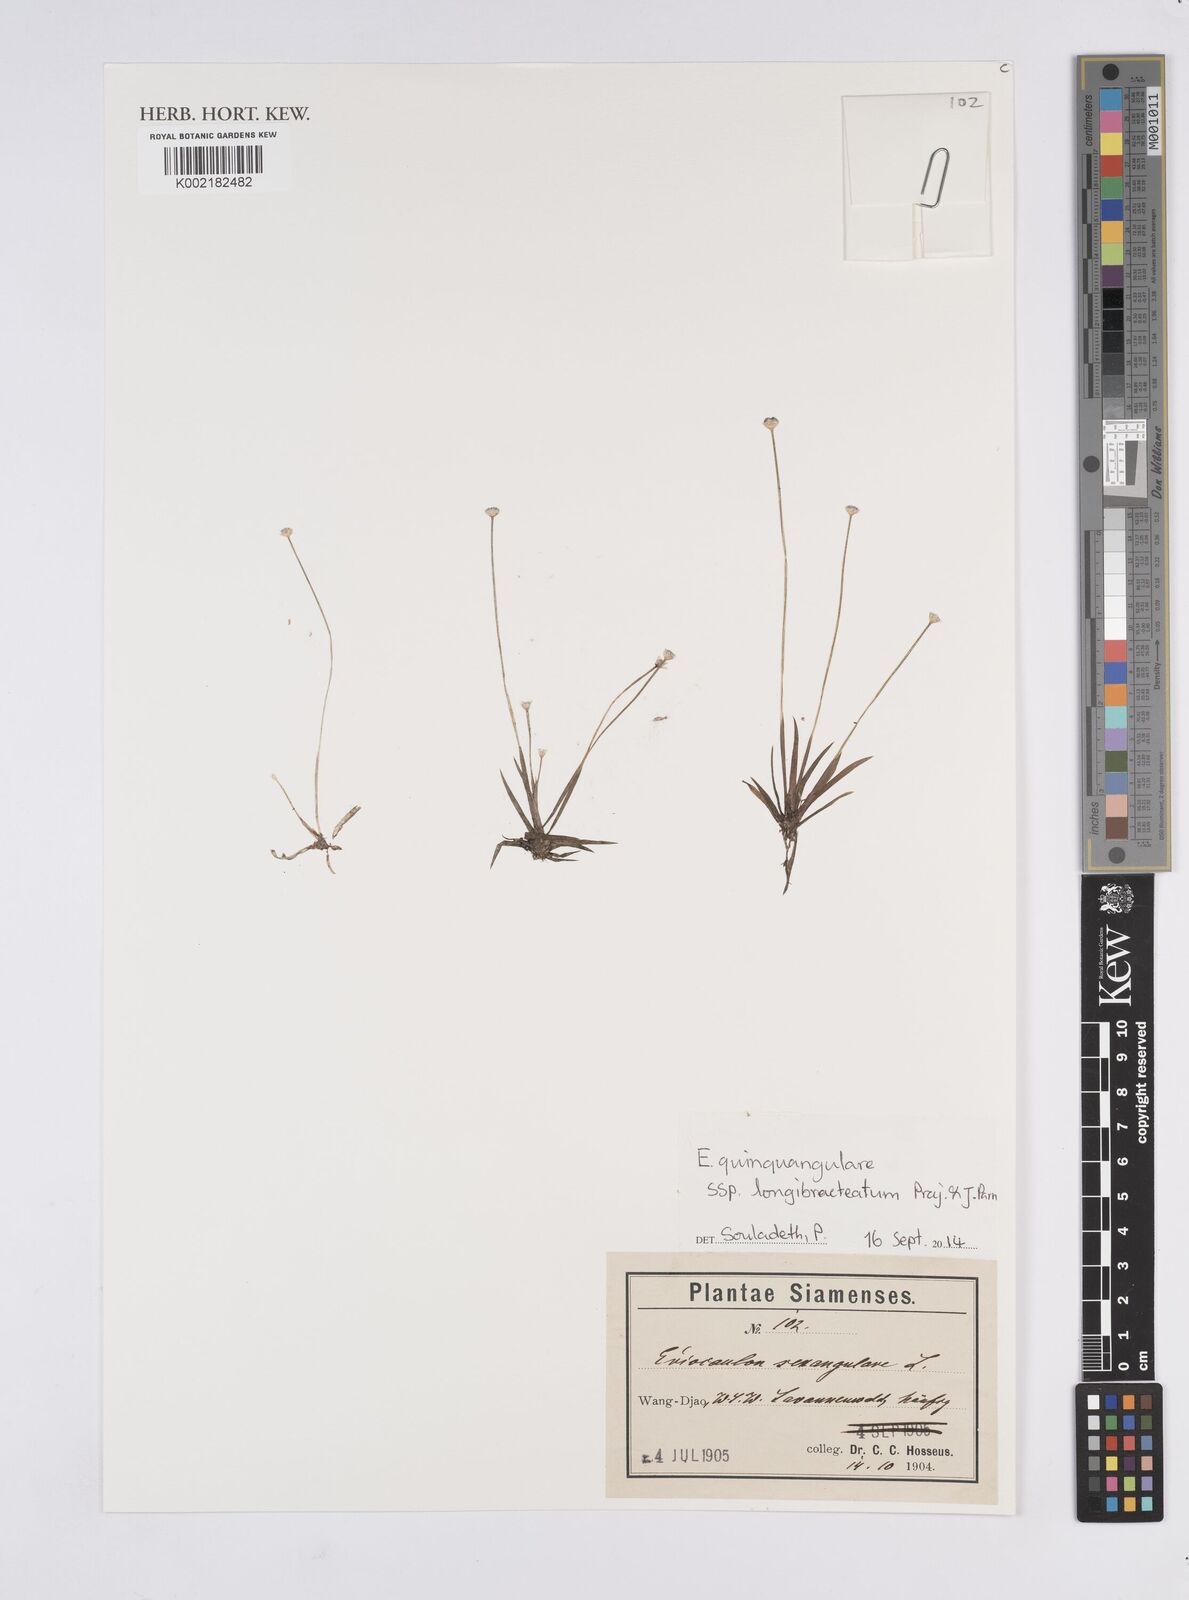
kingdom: Plantae
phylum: Tracheophyta
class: Liliopsida
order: Poales
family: Eriocaulaceae
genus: Eriocaulon
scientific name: Eriocaulon quinquangulare
